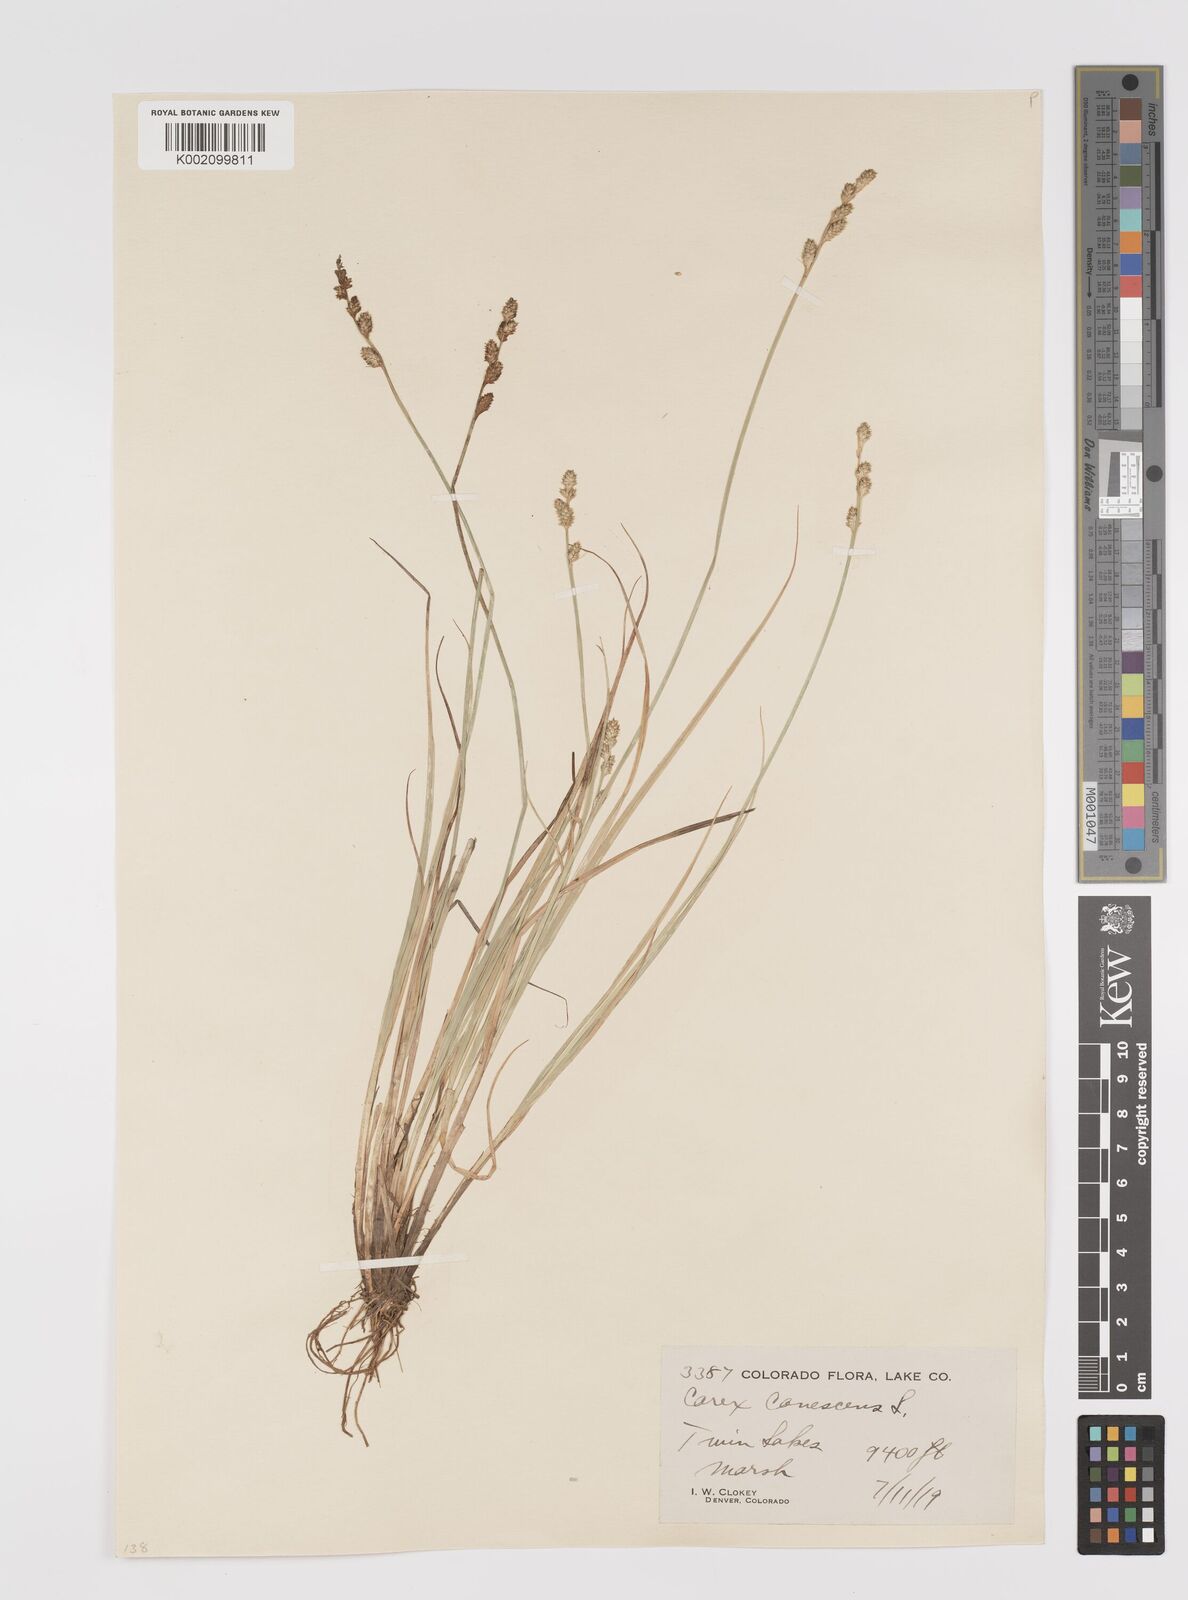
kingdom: Plantae
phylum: Tracheophyta
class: Liliopsida
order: Poales
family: Cyperaceae
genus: Carex
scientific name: Carex curta
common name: White sedge
